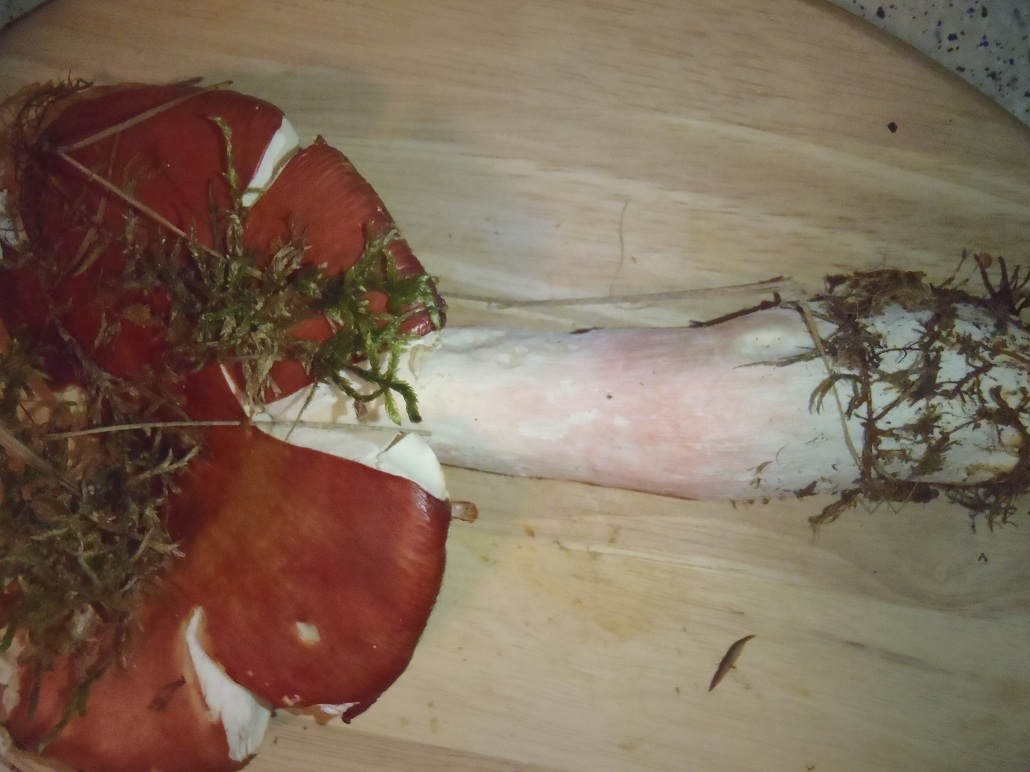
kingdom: Fungi
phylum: Basidiomycota
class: Agaricomycetes
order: Russulales
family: Russulaceae
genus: Russula
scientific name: Russula paludosa
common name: prægtig skørhat
